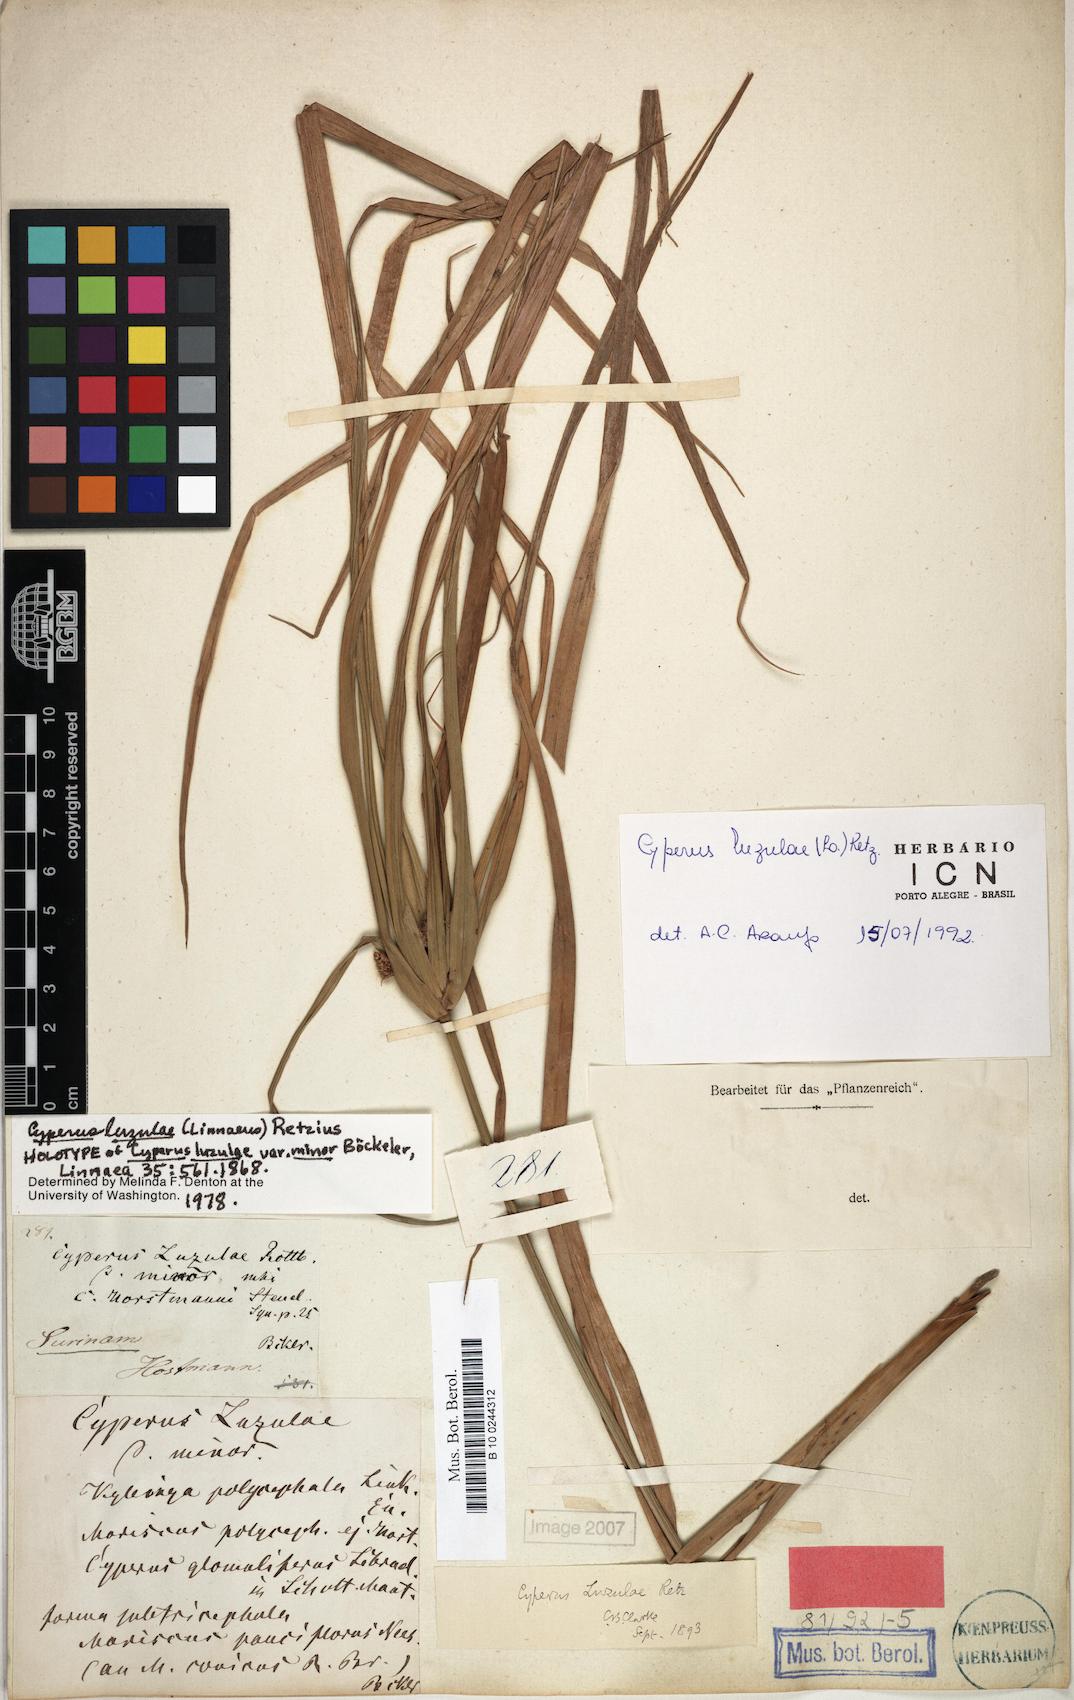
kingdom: Plantae
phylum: Tracheophyta
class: Liliopsida
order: Poales
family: Cyperaceae
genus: Cyperus
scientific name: Cyperus luzulae
